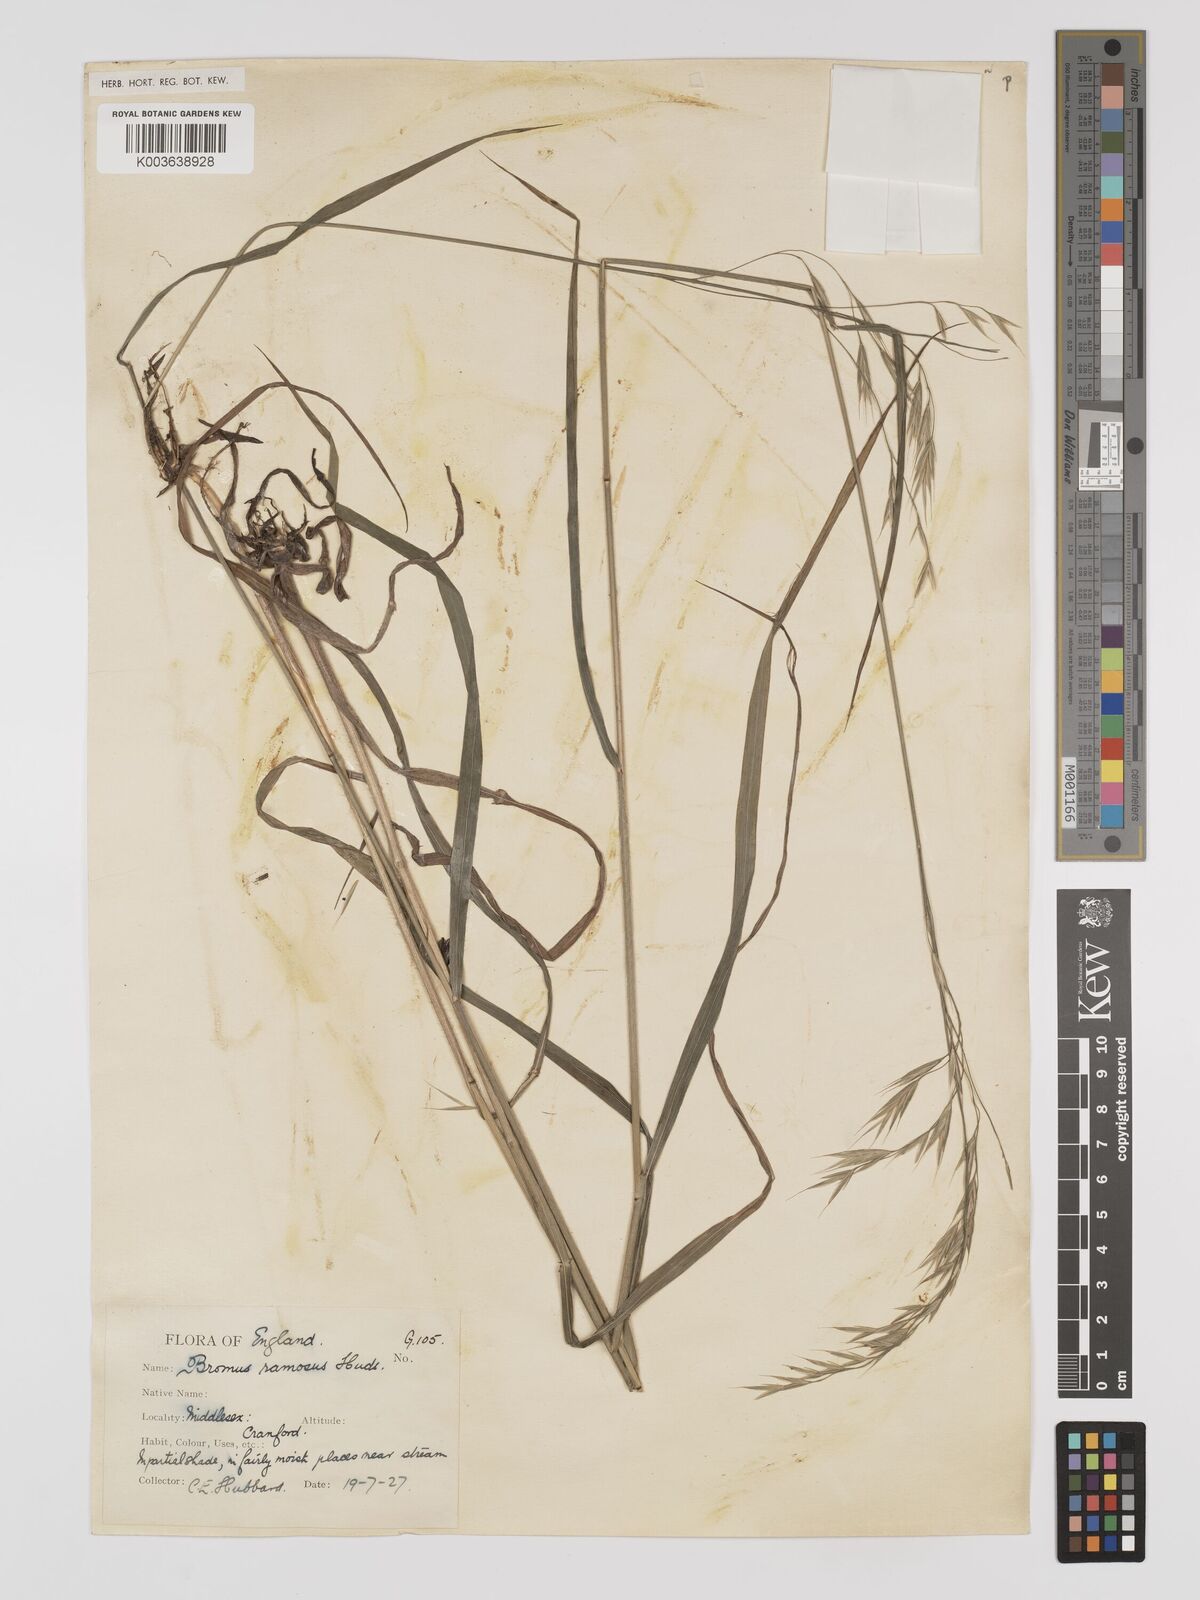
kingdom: Plantae
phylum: Tracheophyta
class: Liliopsida
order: Poales
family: Poaceae
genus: Bromus
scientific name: Bromus ramosus
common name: Hairy brome
